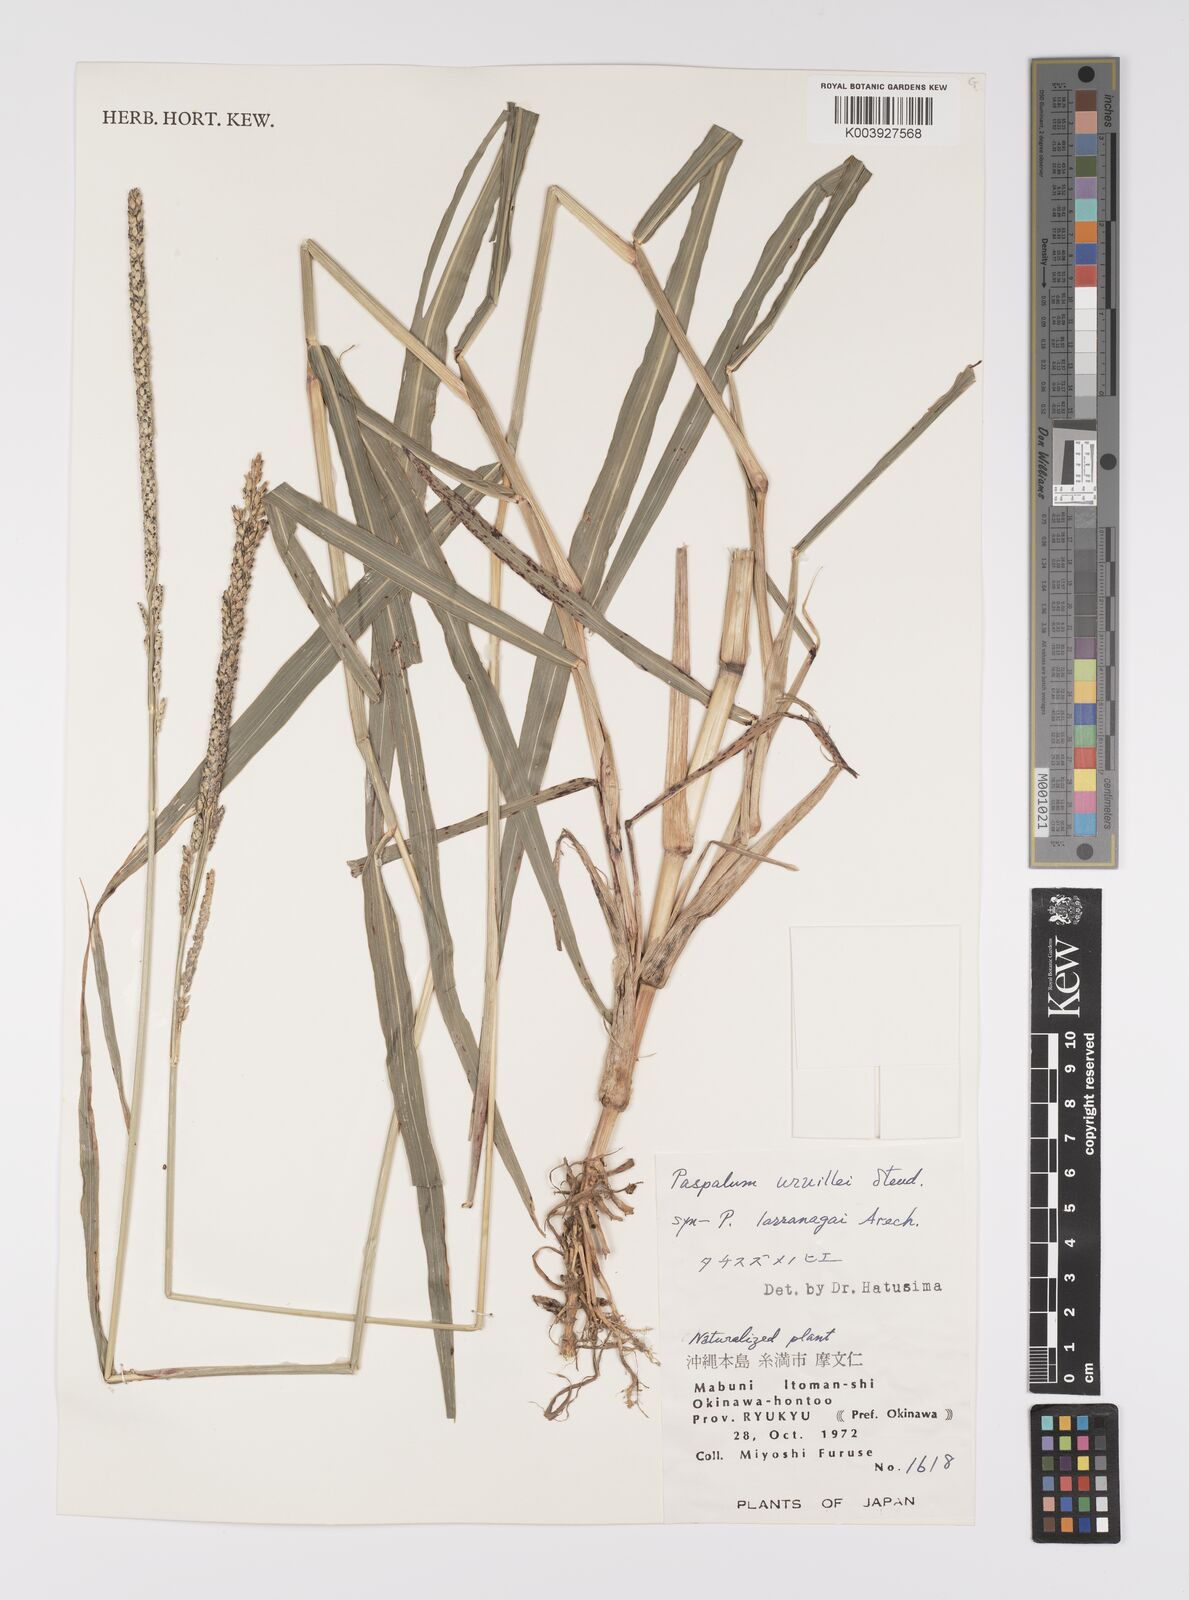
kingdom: Plantae
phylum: Tracheophyta
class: Liliopsida
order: Poales
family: Poaceae
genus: Paspalum
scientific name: Paspalum urvillei
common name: Vasey's grass
